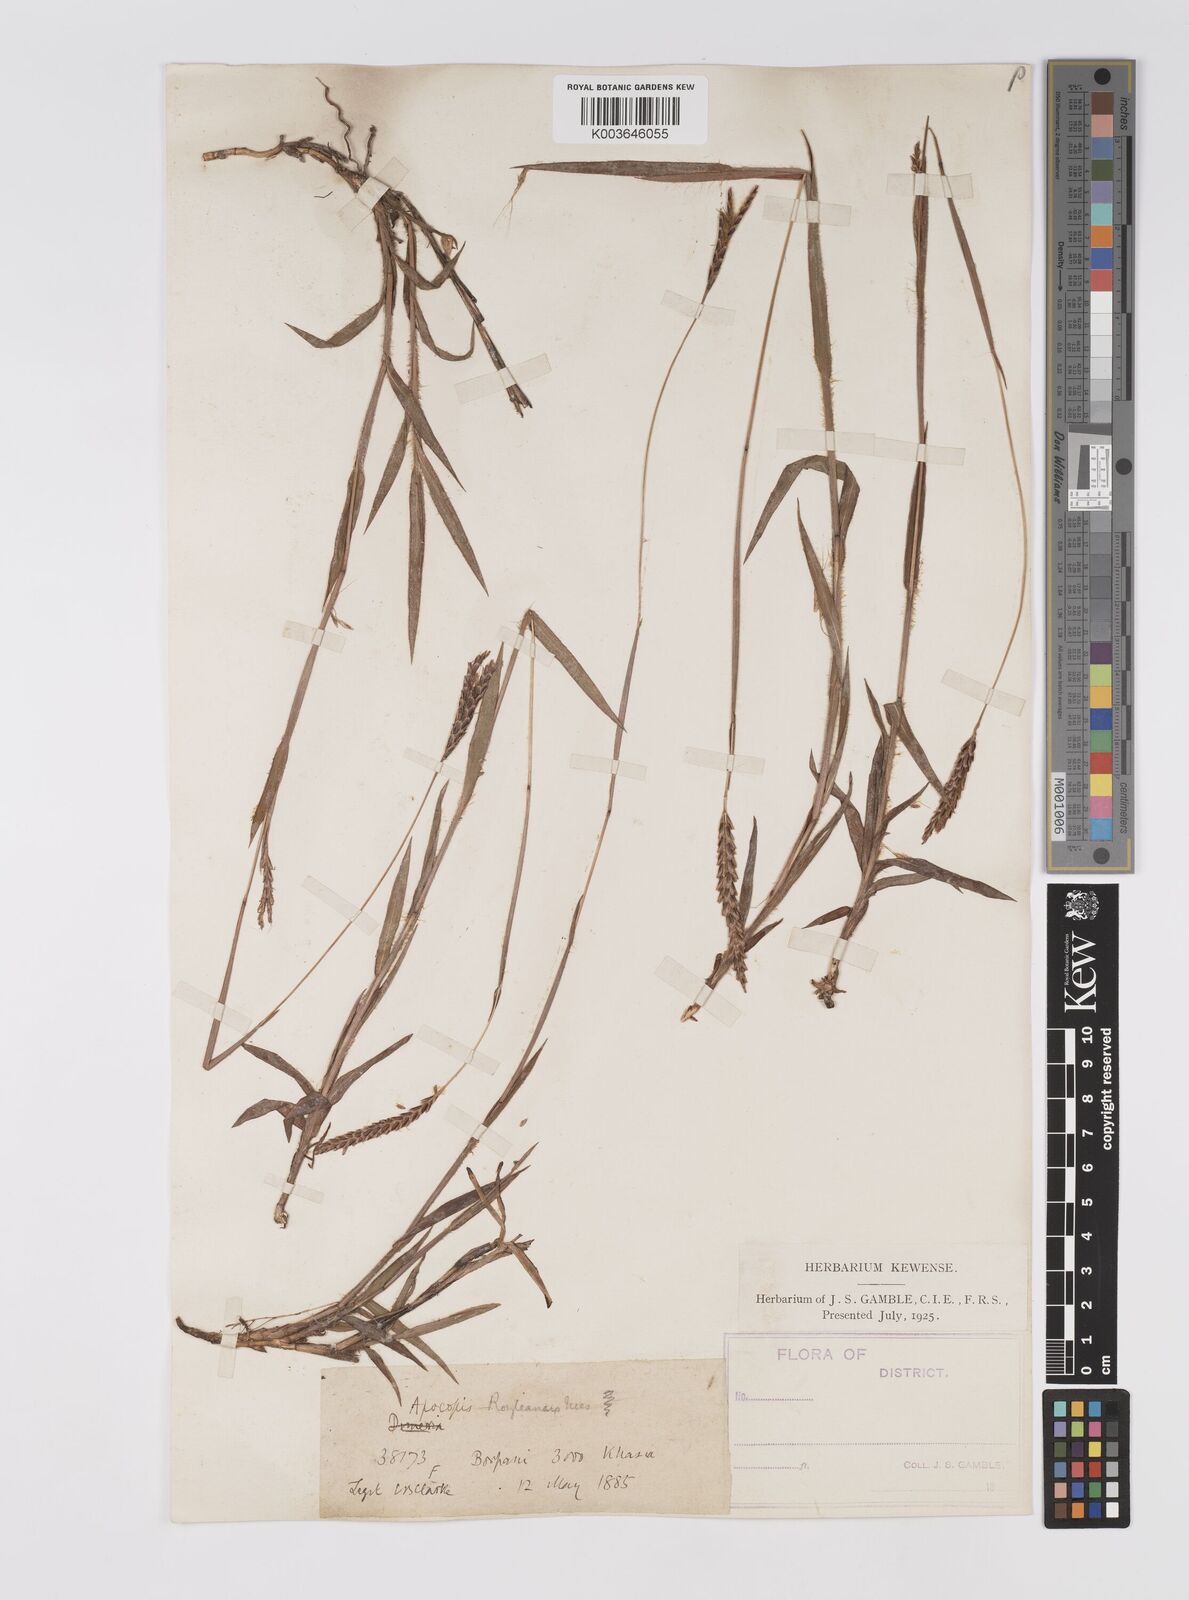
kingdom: Plantae
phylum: Tracheophyta
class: Liliopsida
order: Poales
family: Poaceae
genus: Apocopis
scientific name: Apocopis paleaceus
